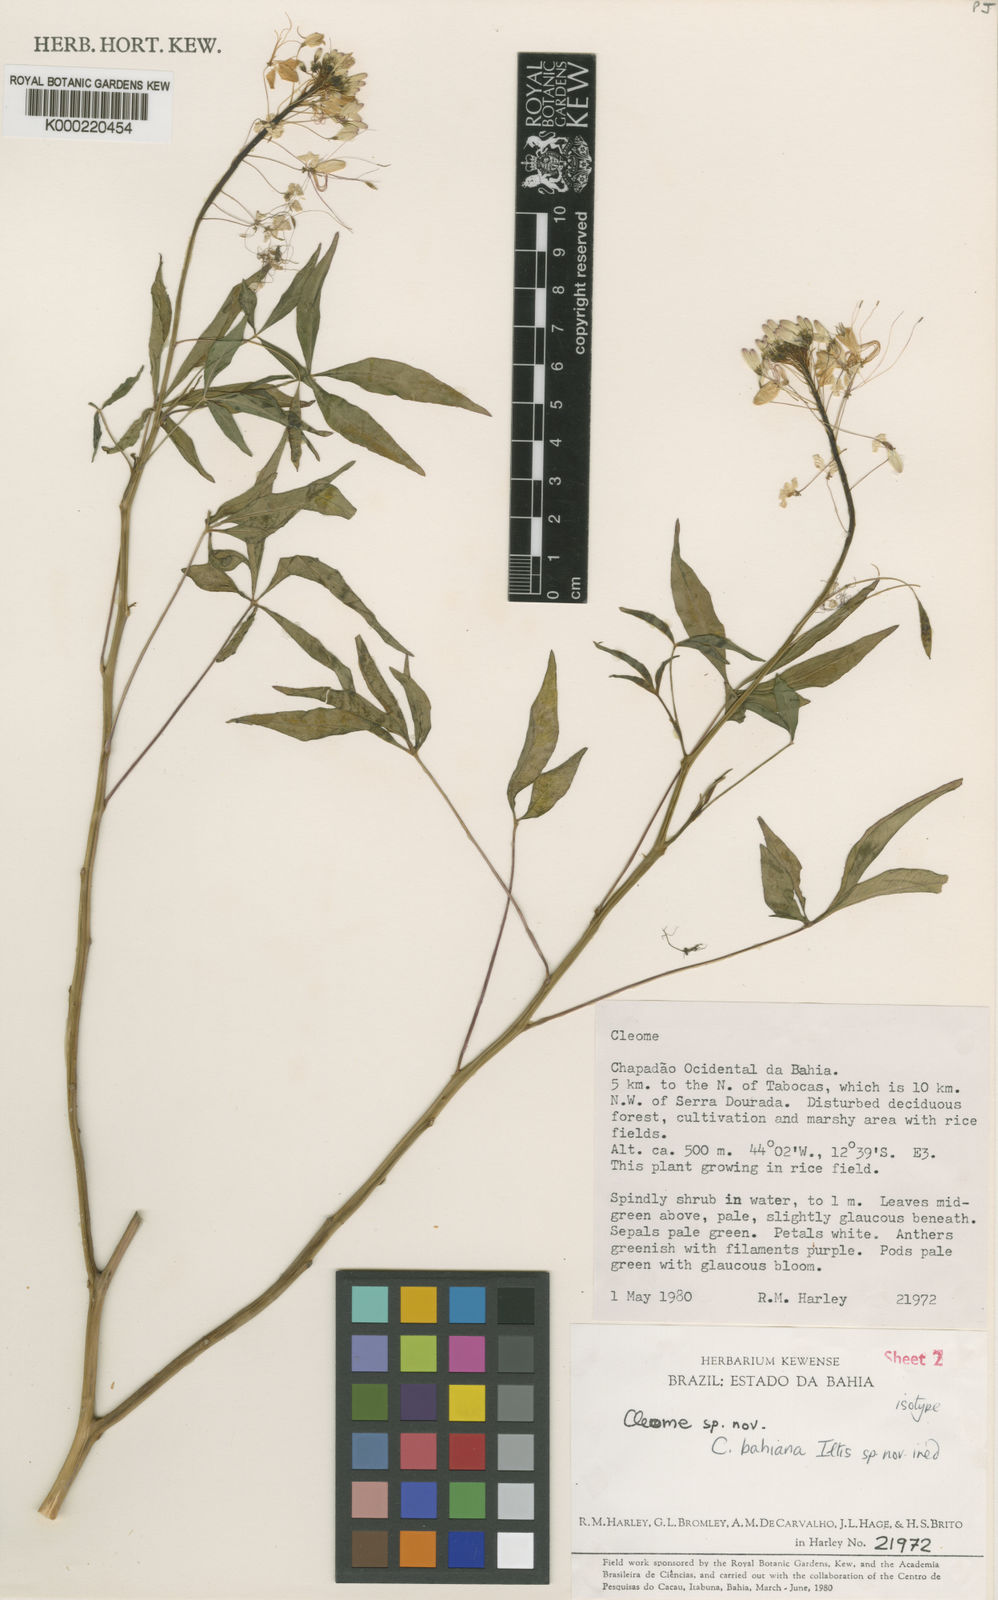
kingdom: Plantae
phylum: Tracheophyta
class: Magnoliopsida
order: Brassicales
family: Cleomaceae
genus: Cleome
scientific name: Cleome
